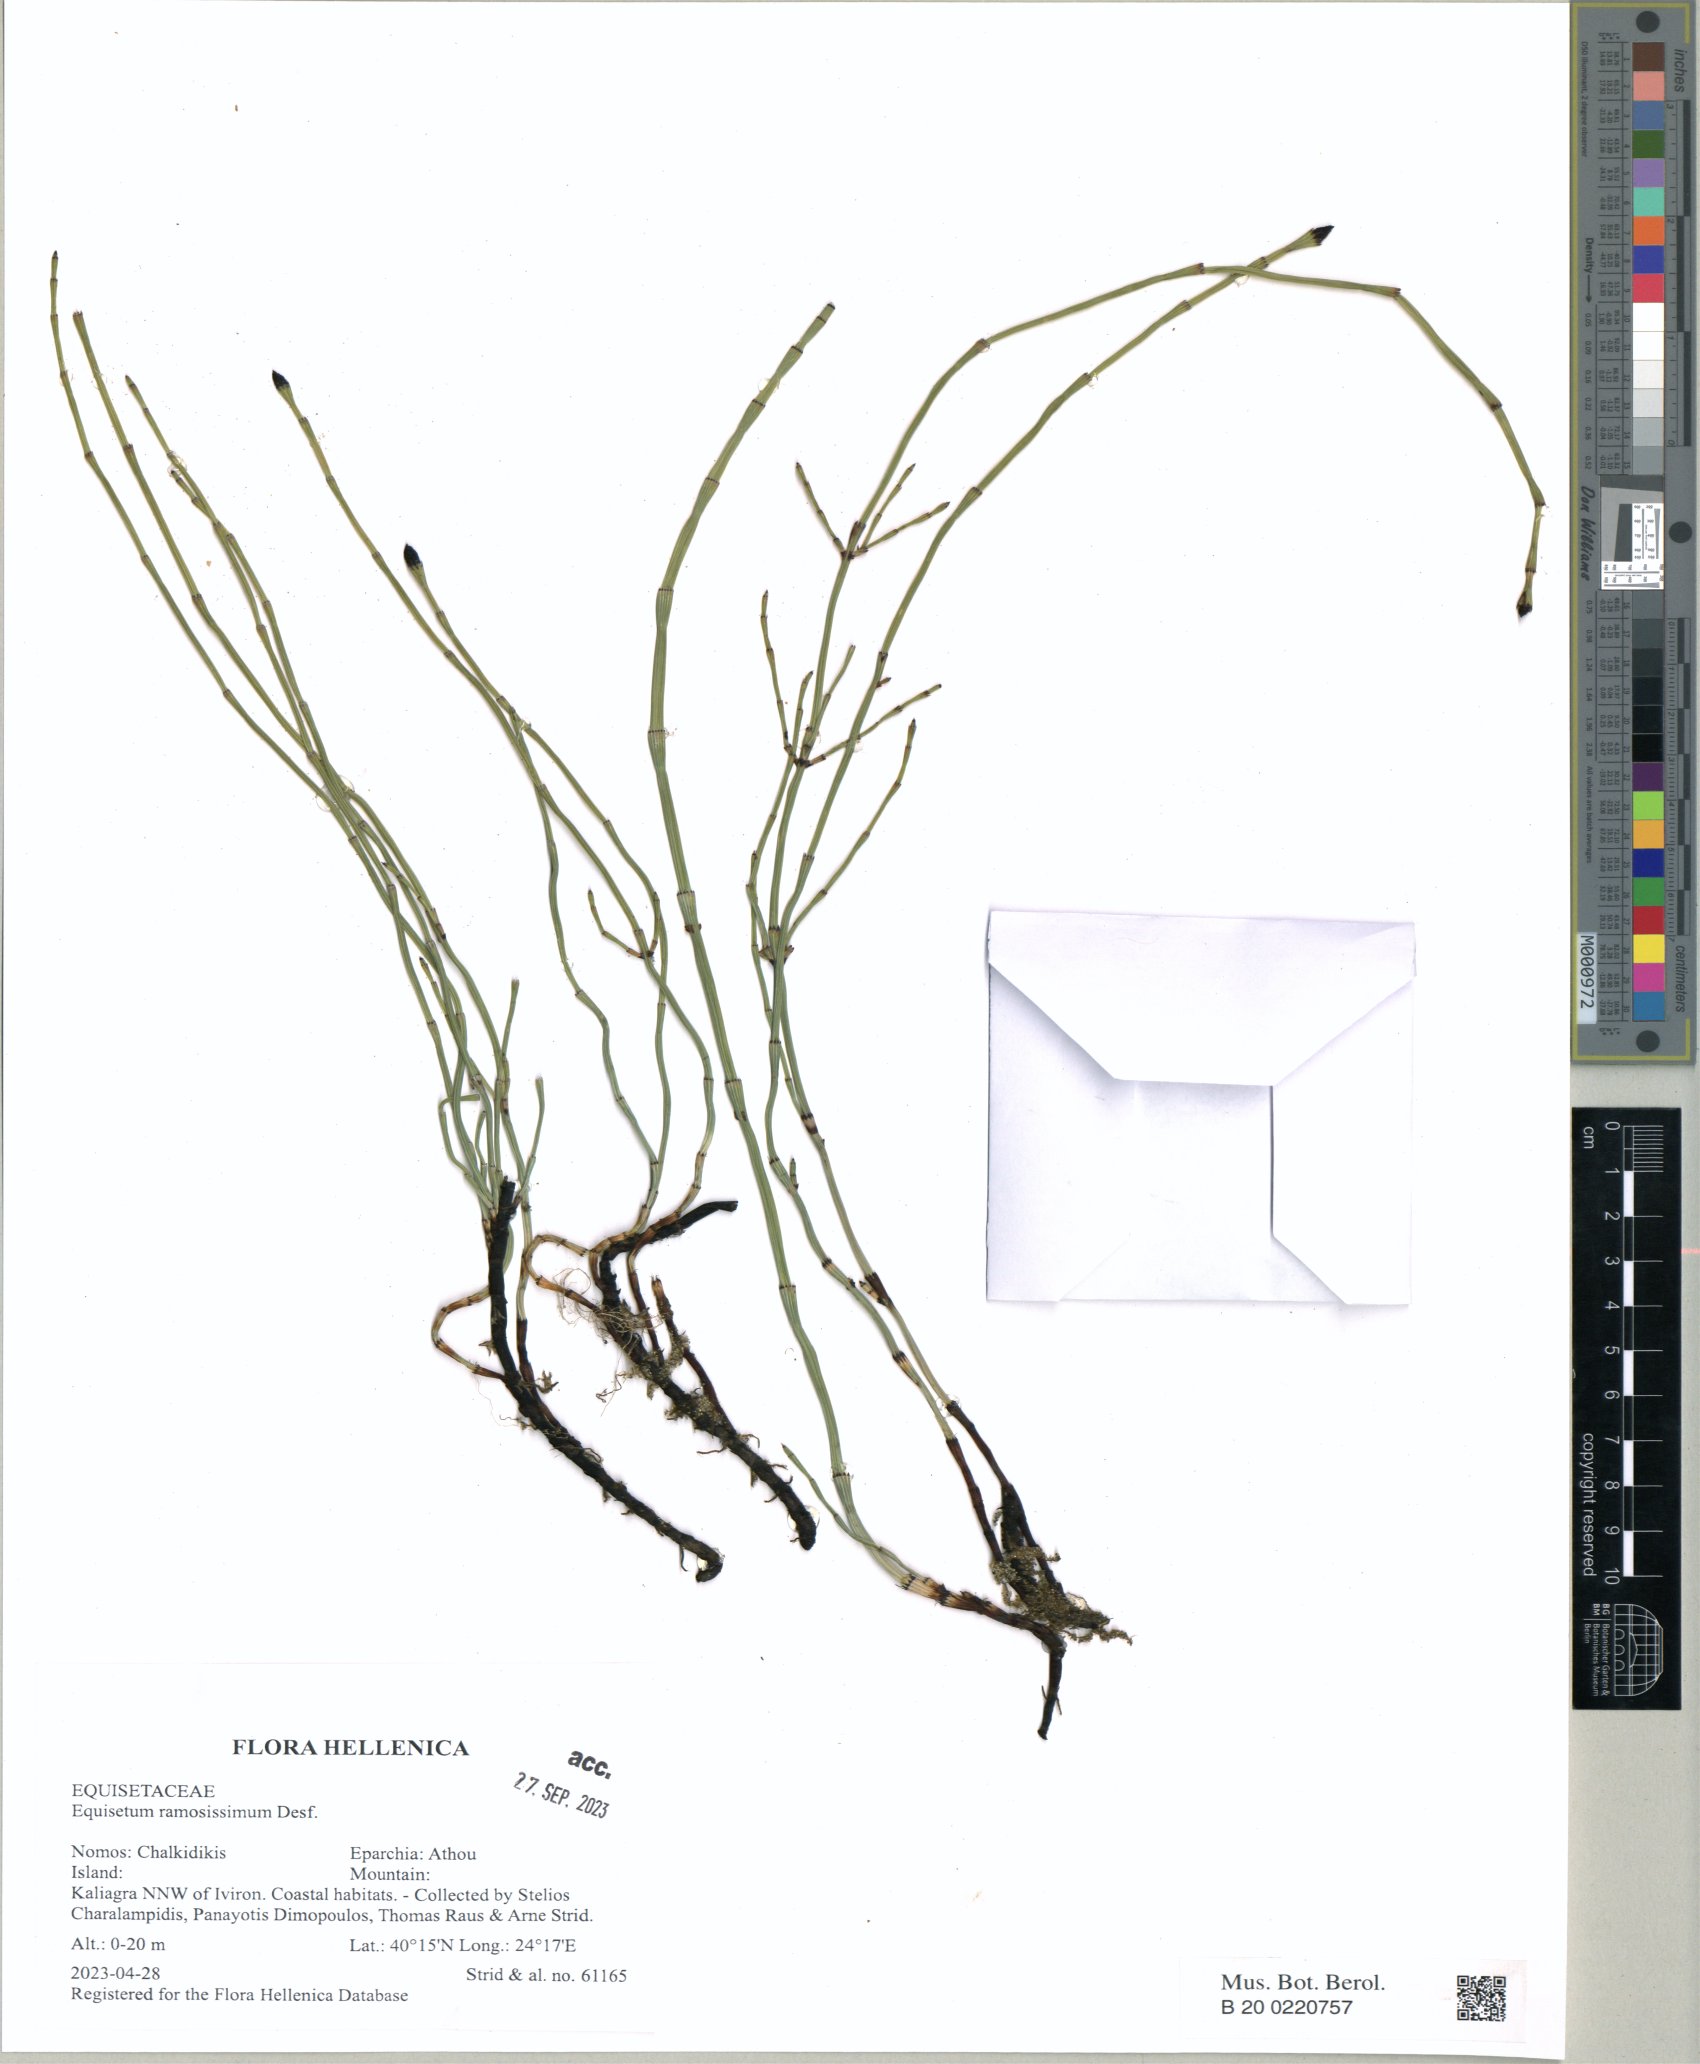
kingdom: Plantae
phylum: Tracheophyta
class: Polypodiopsida
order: Equisetales
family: Equisetaceae
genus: Equisetum
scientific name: Equisetum ramosissimum
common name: Branched horsetail
